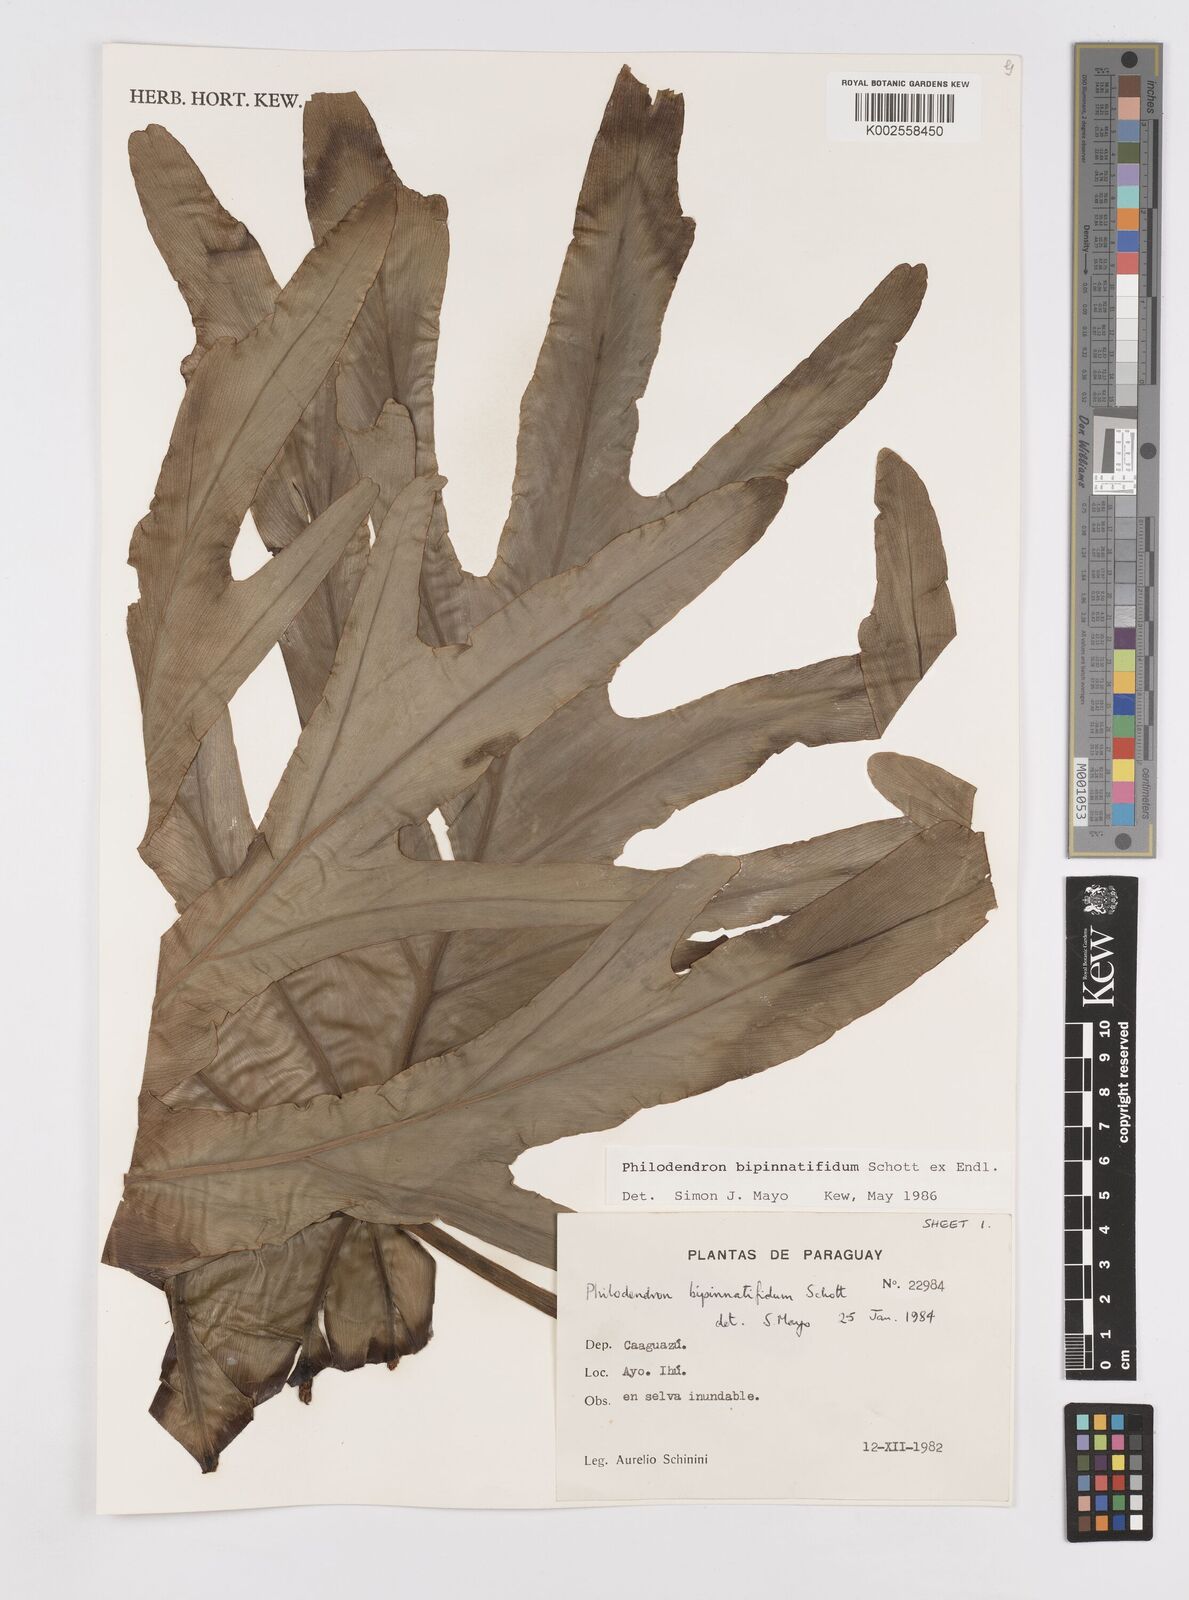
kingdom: Plantae
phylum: Tracheophyta
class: Liliopsida
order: Alismatales
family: Araceae
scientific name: Araceae
